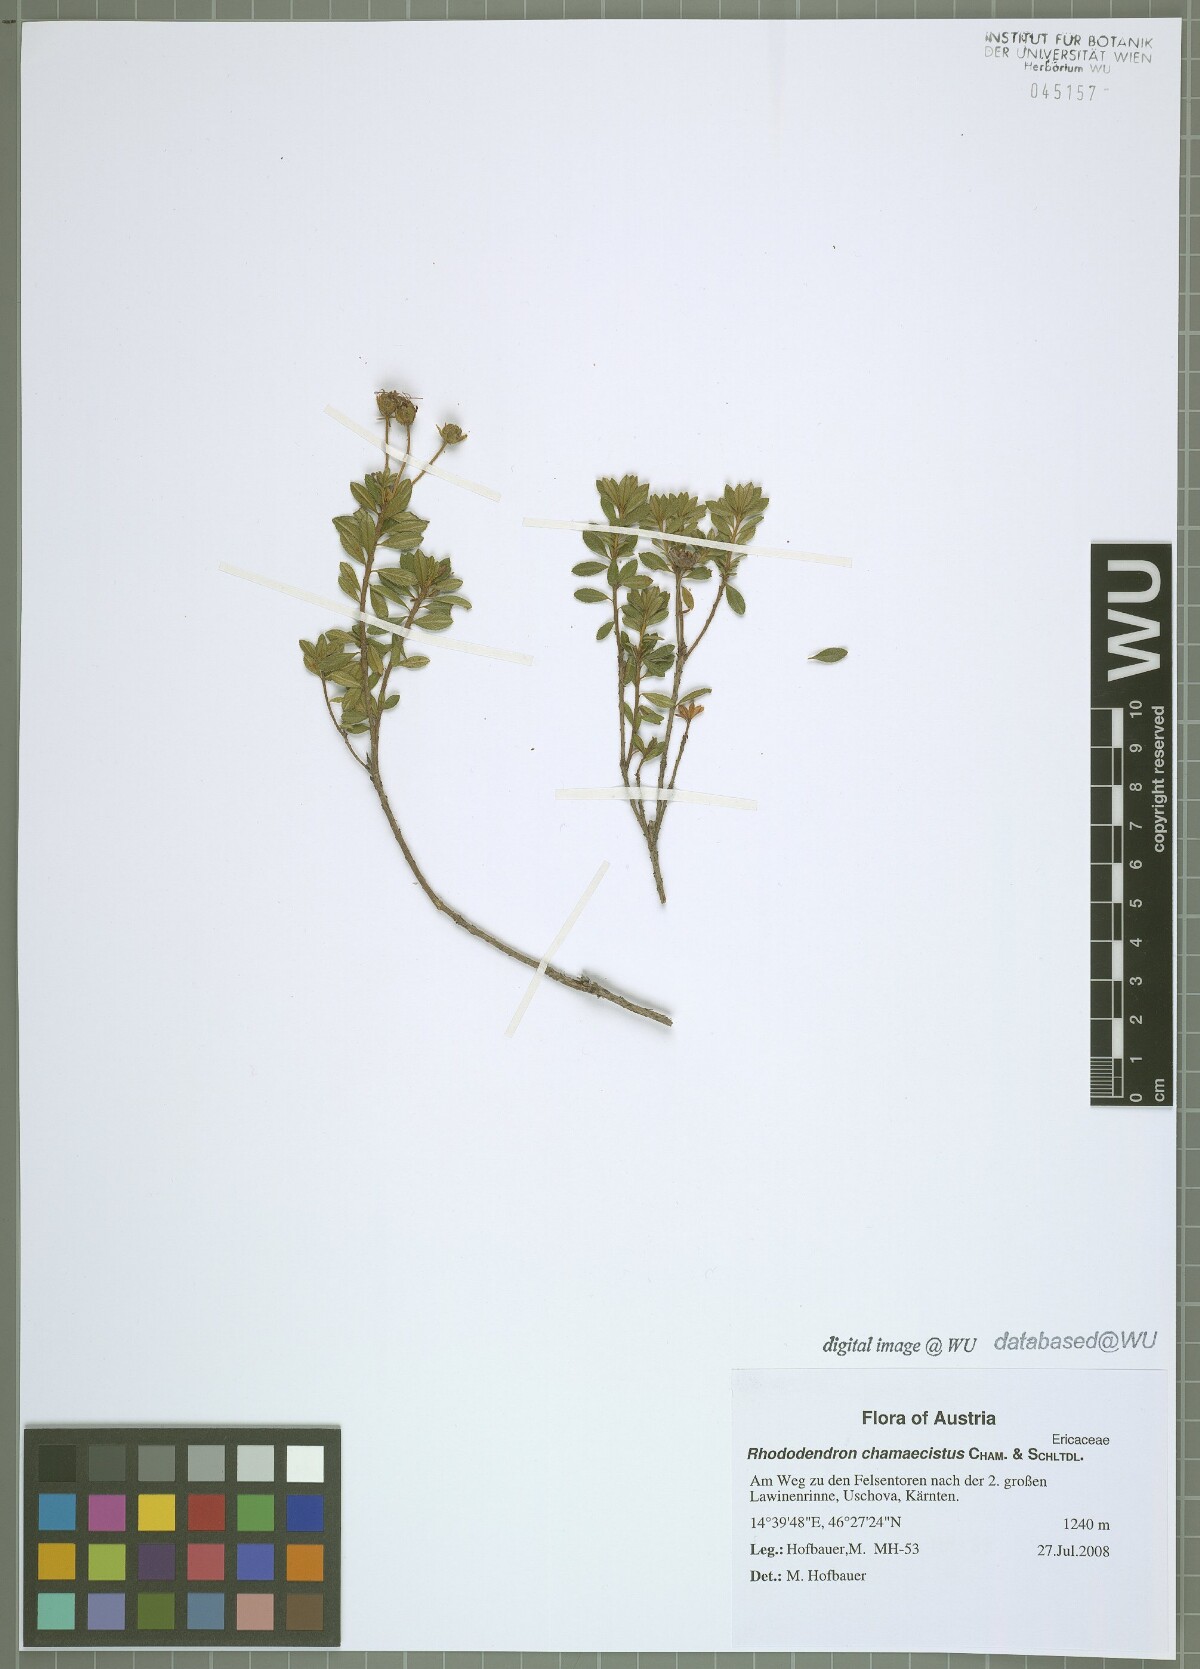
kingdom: Plantae
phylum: Tracheophyta
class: Magnoliopsida
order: Ericales
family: Ericaceae
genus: Rhodothamnus
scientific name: Rhodothamnus chamaecistus
